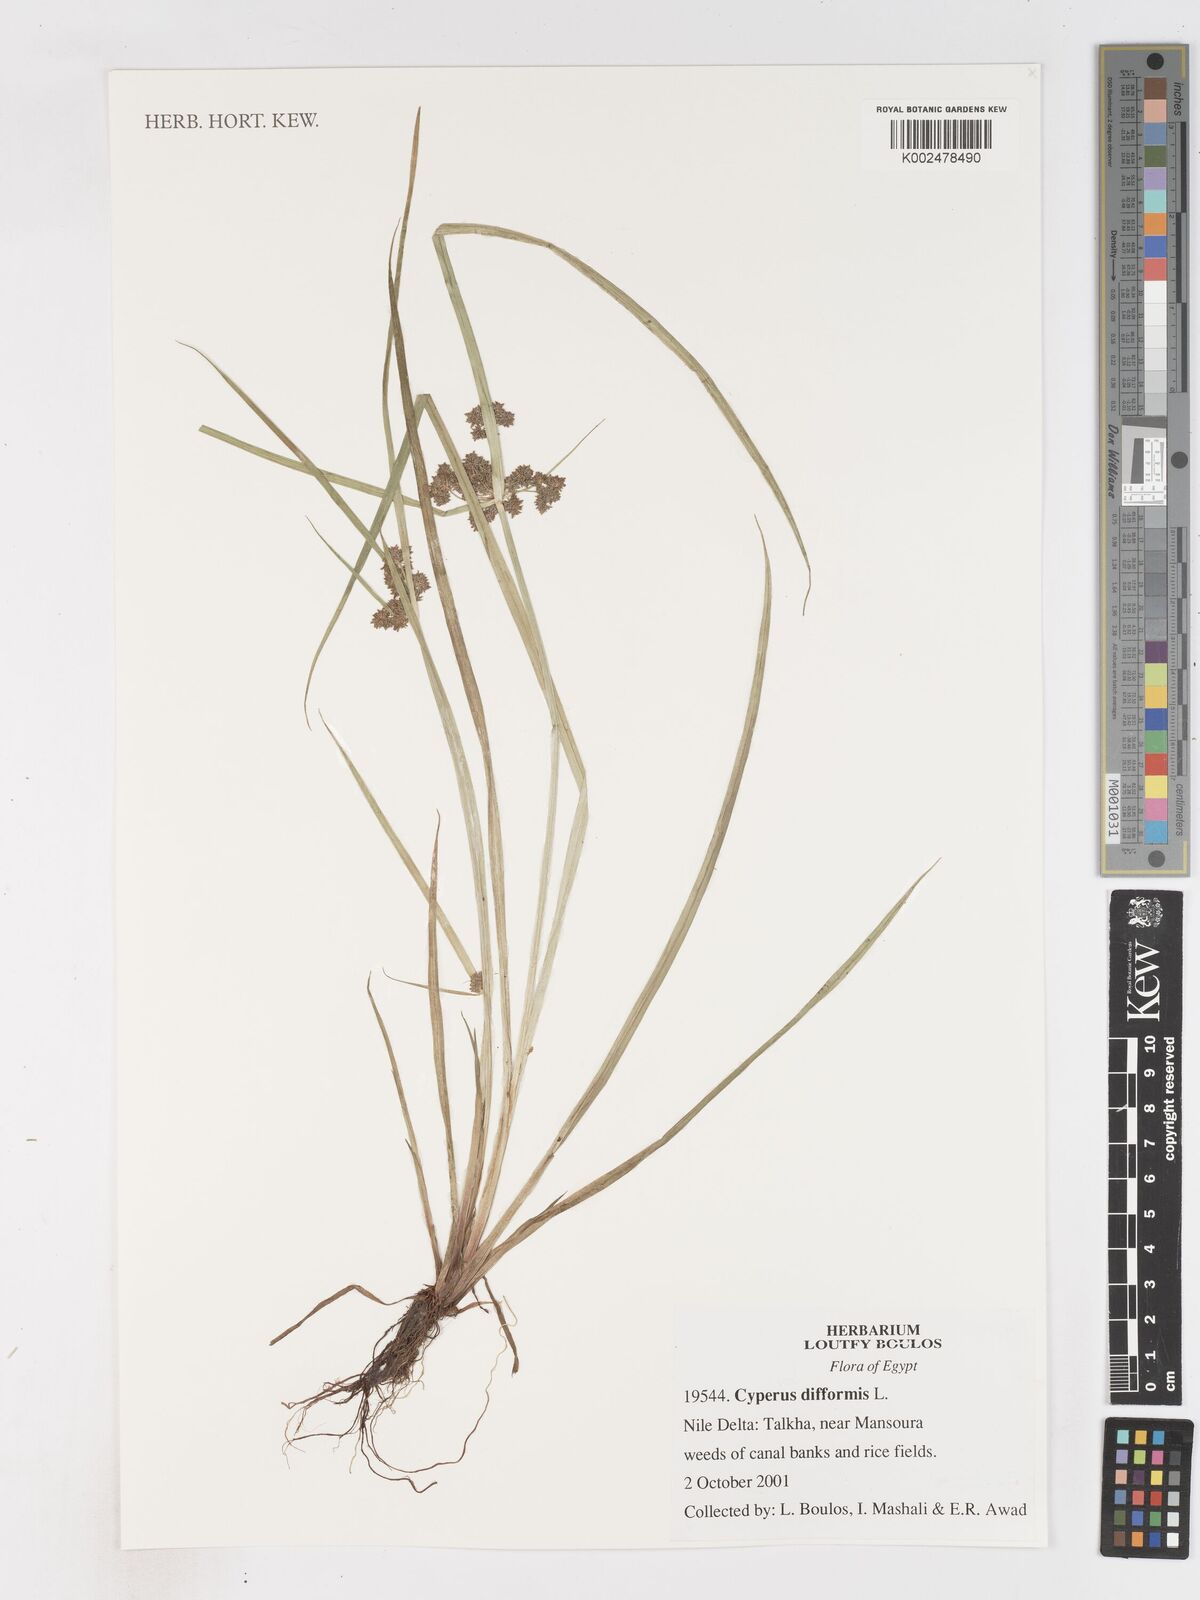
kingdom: Plantae
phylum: Tracheophyta
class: Liliopsida
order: Poales
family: Cyperaceae
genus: Cyperus
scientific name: Cyperus difformis
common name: Variable flatsedge
